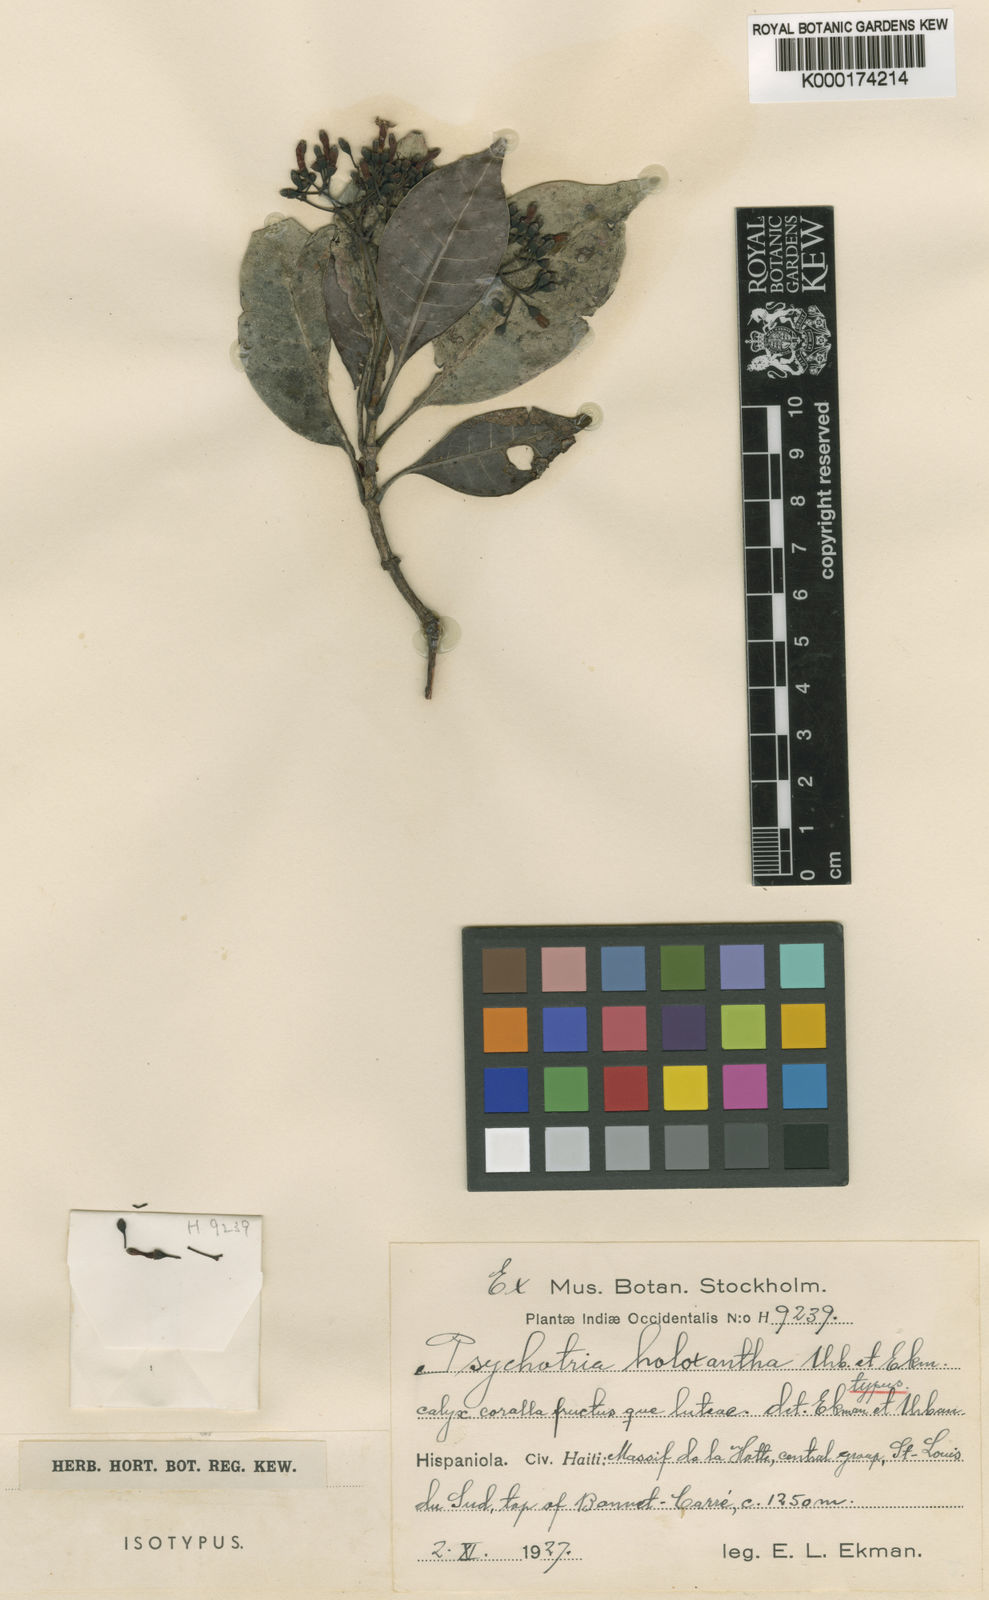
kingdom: Plantae
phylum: Tracheophyta
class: Magnoliopsida
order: Gentianales
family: Rubiaceae
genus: Psychotria
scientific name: Psychotria holoxantha
